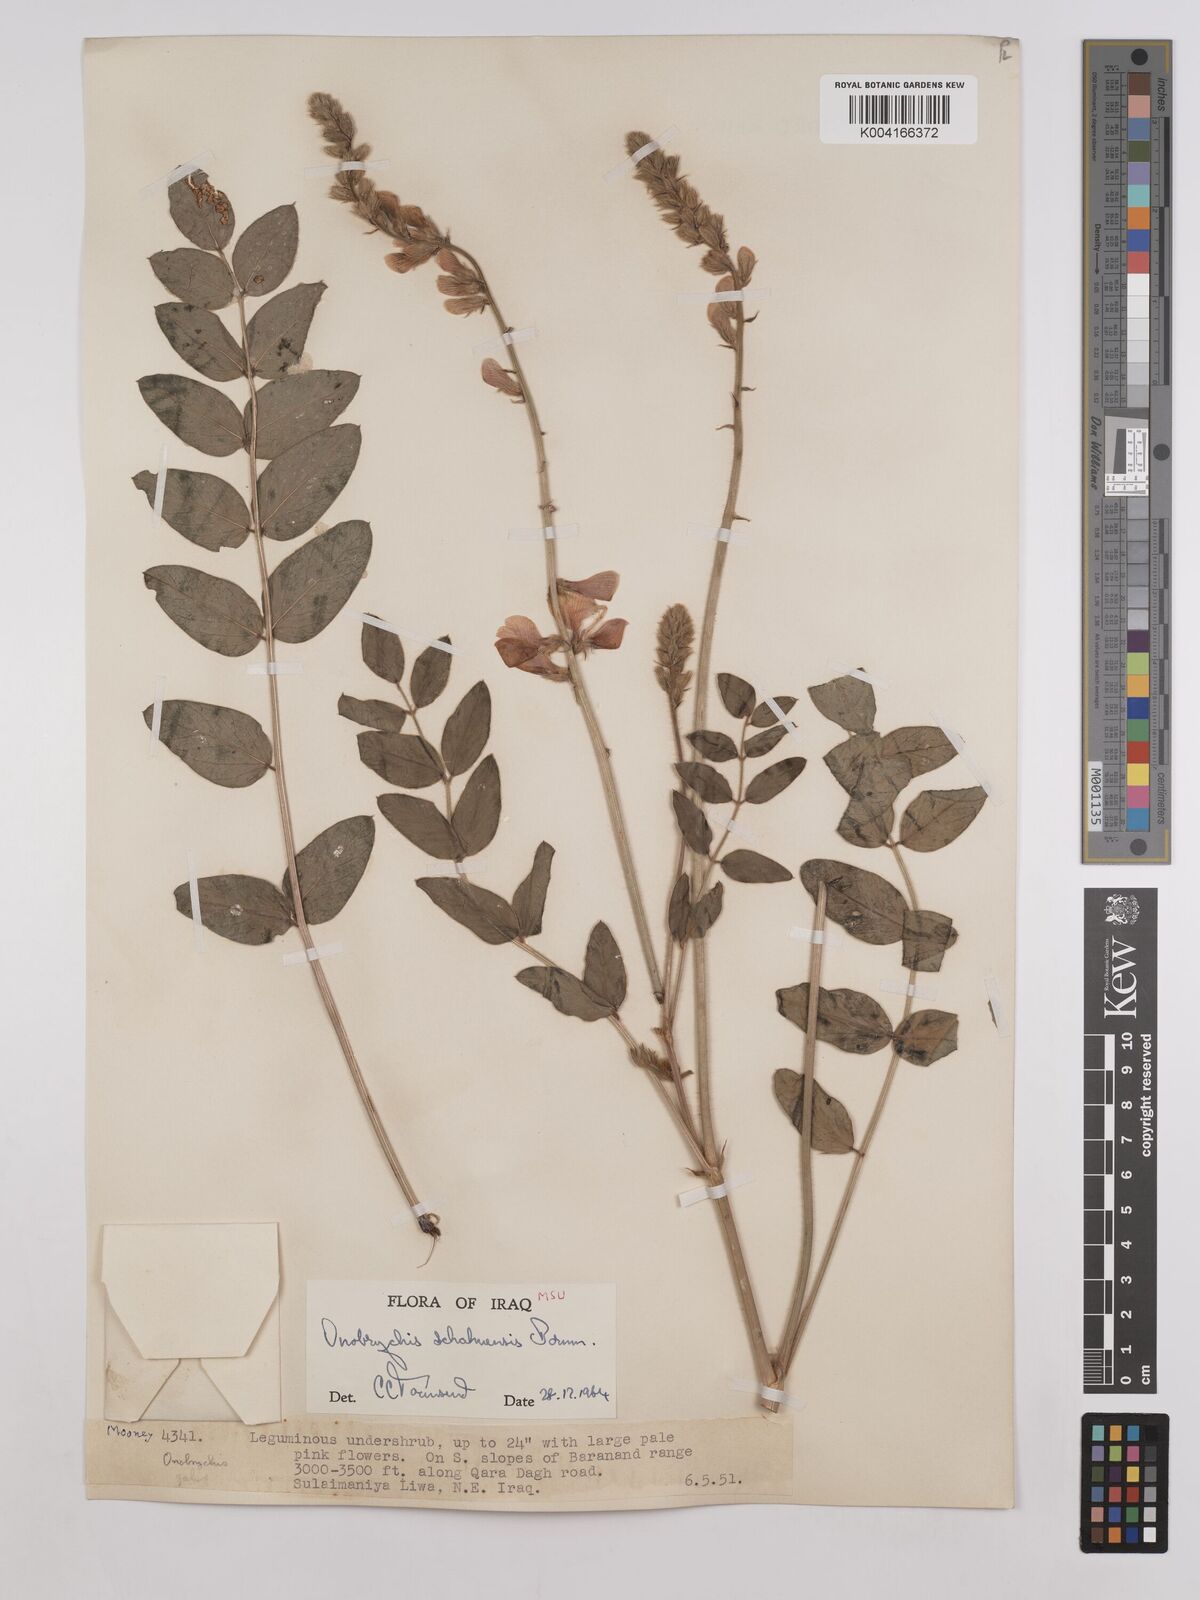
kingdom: Plantae
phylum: Tracheophyta
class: Magnoliopsida
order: Fabales
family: Fabaceae
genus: Onobrychis
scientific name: Onobrychis schahuensis
